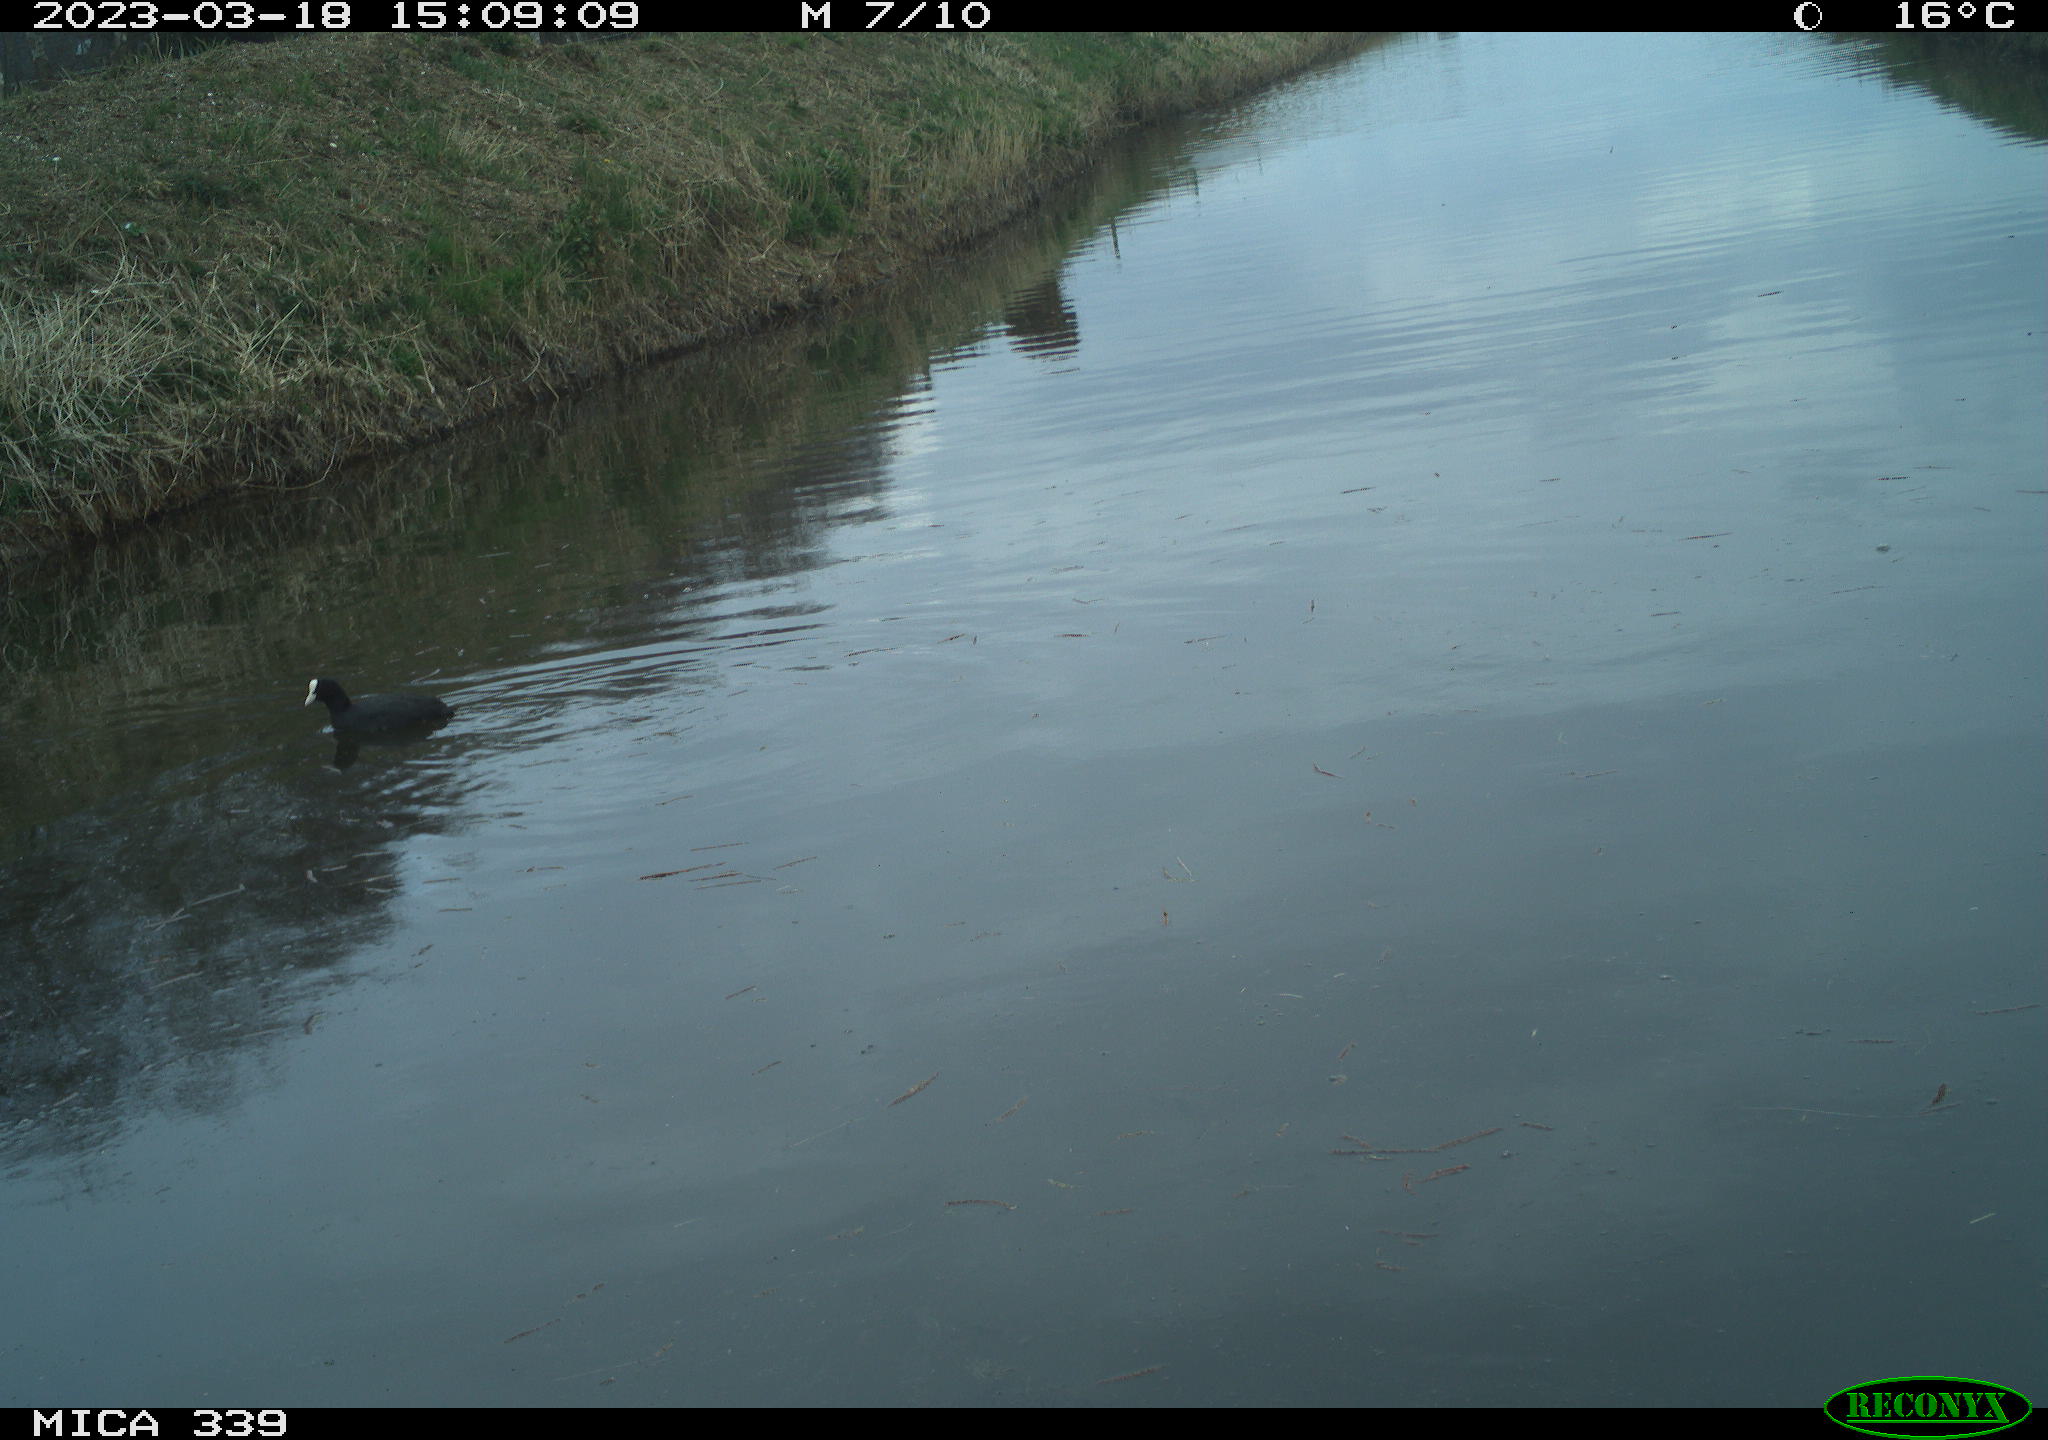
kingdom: Animalia
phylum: Chordata
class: Aves
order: Gruiformes
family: Rallidae
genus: Fulica
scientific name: Fulica atra
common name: Eurasian coot
